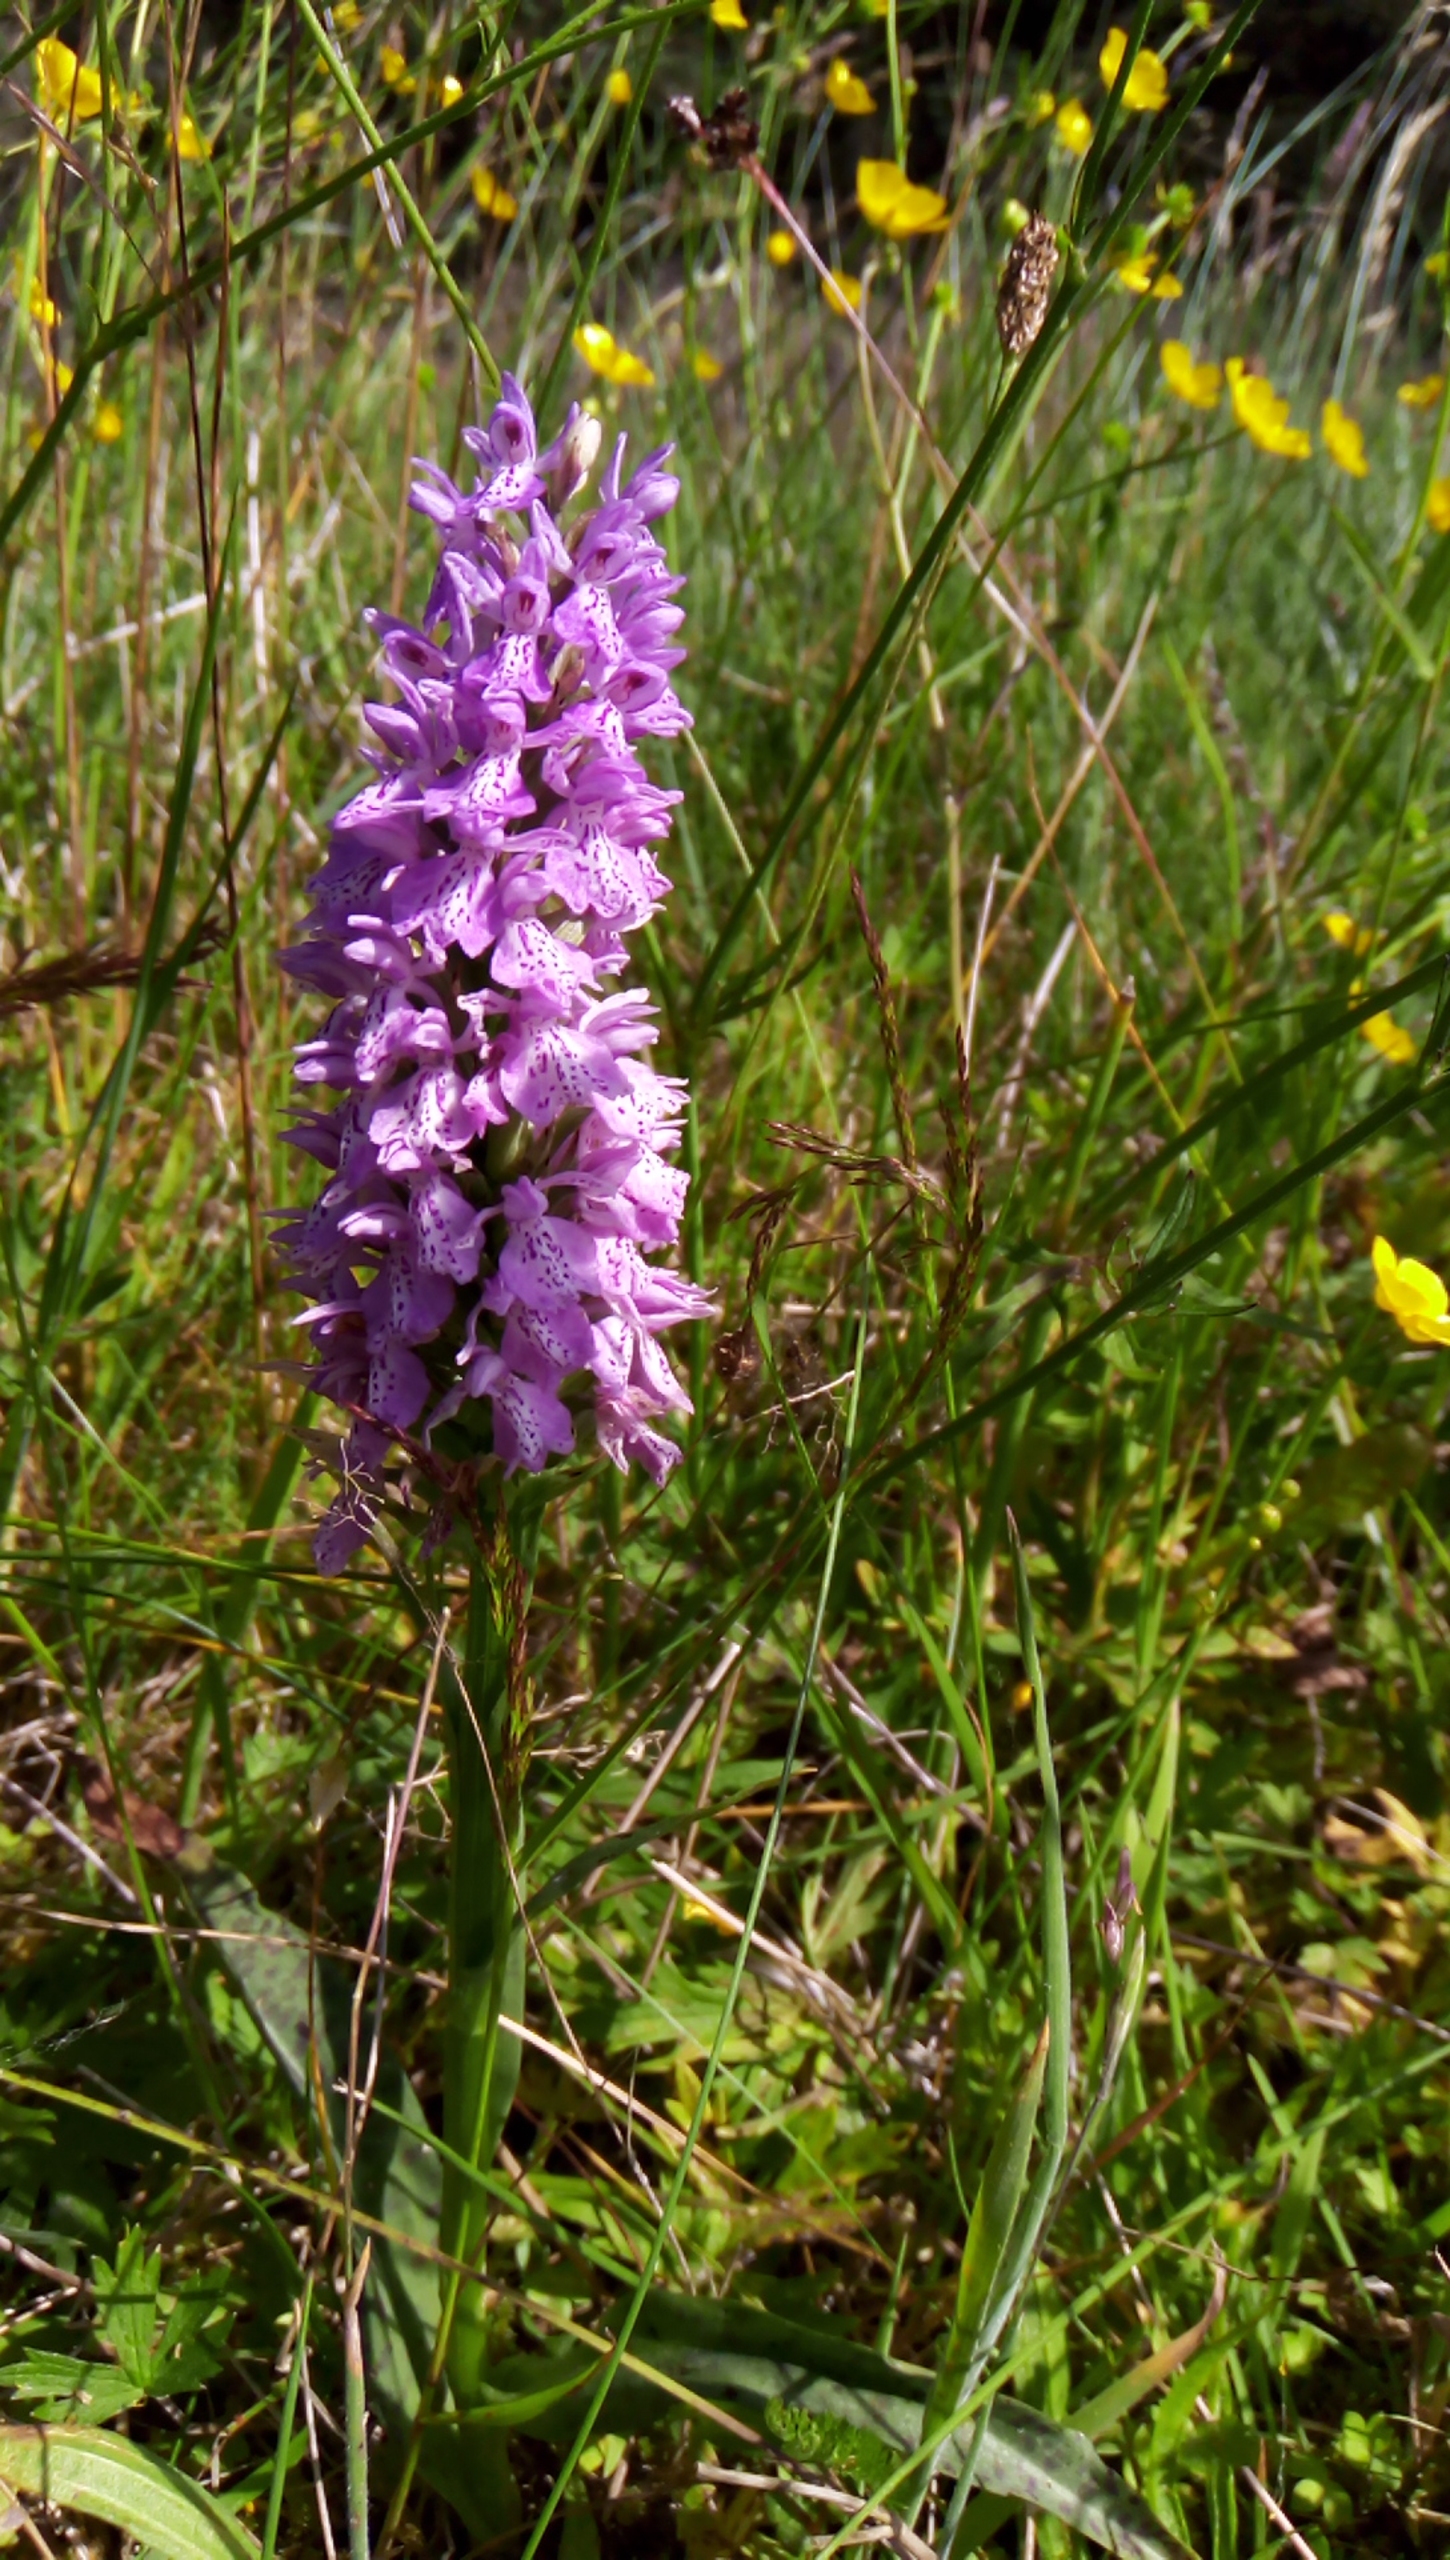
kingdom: Plantae
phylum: Tracheophyta
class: Liliopsida
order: Asparagales
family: Orchidaceae
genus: Dactylorhiza
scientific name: Dactylorhiza maculata
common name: Plettet gøgeurt
